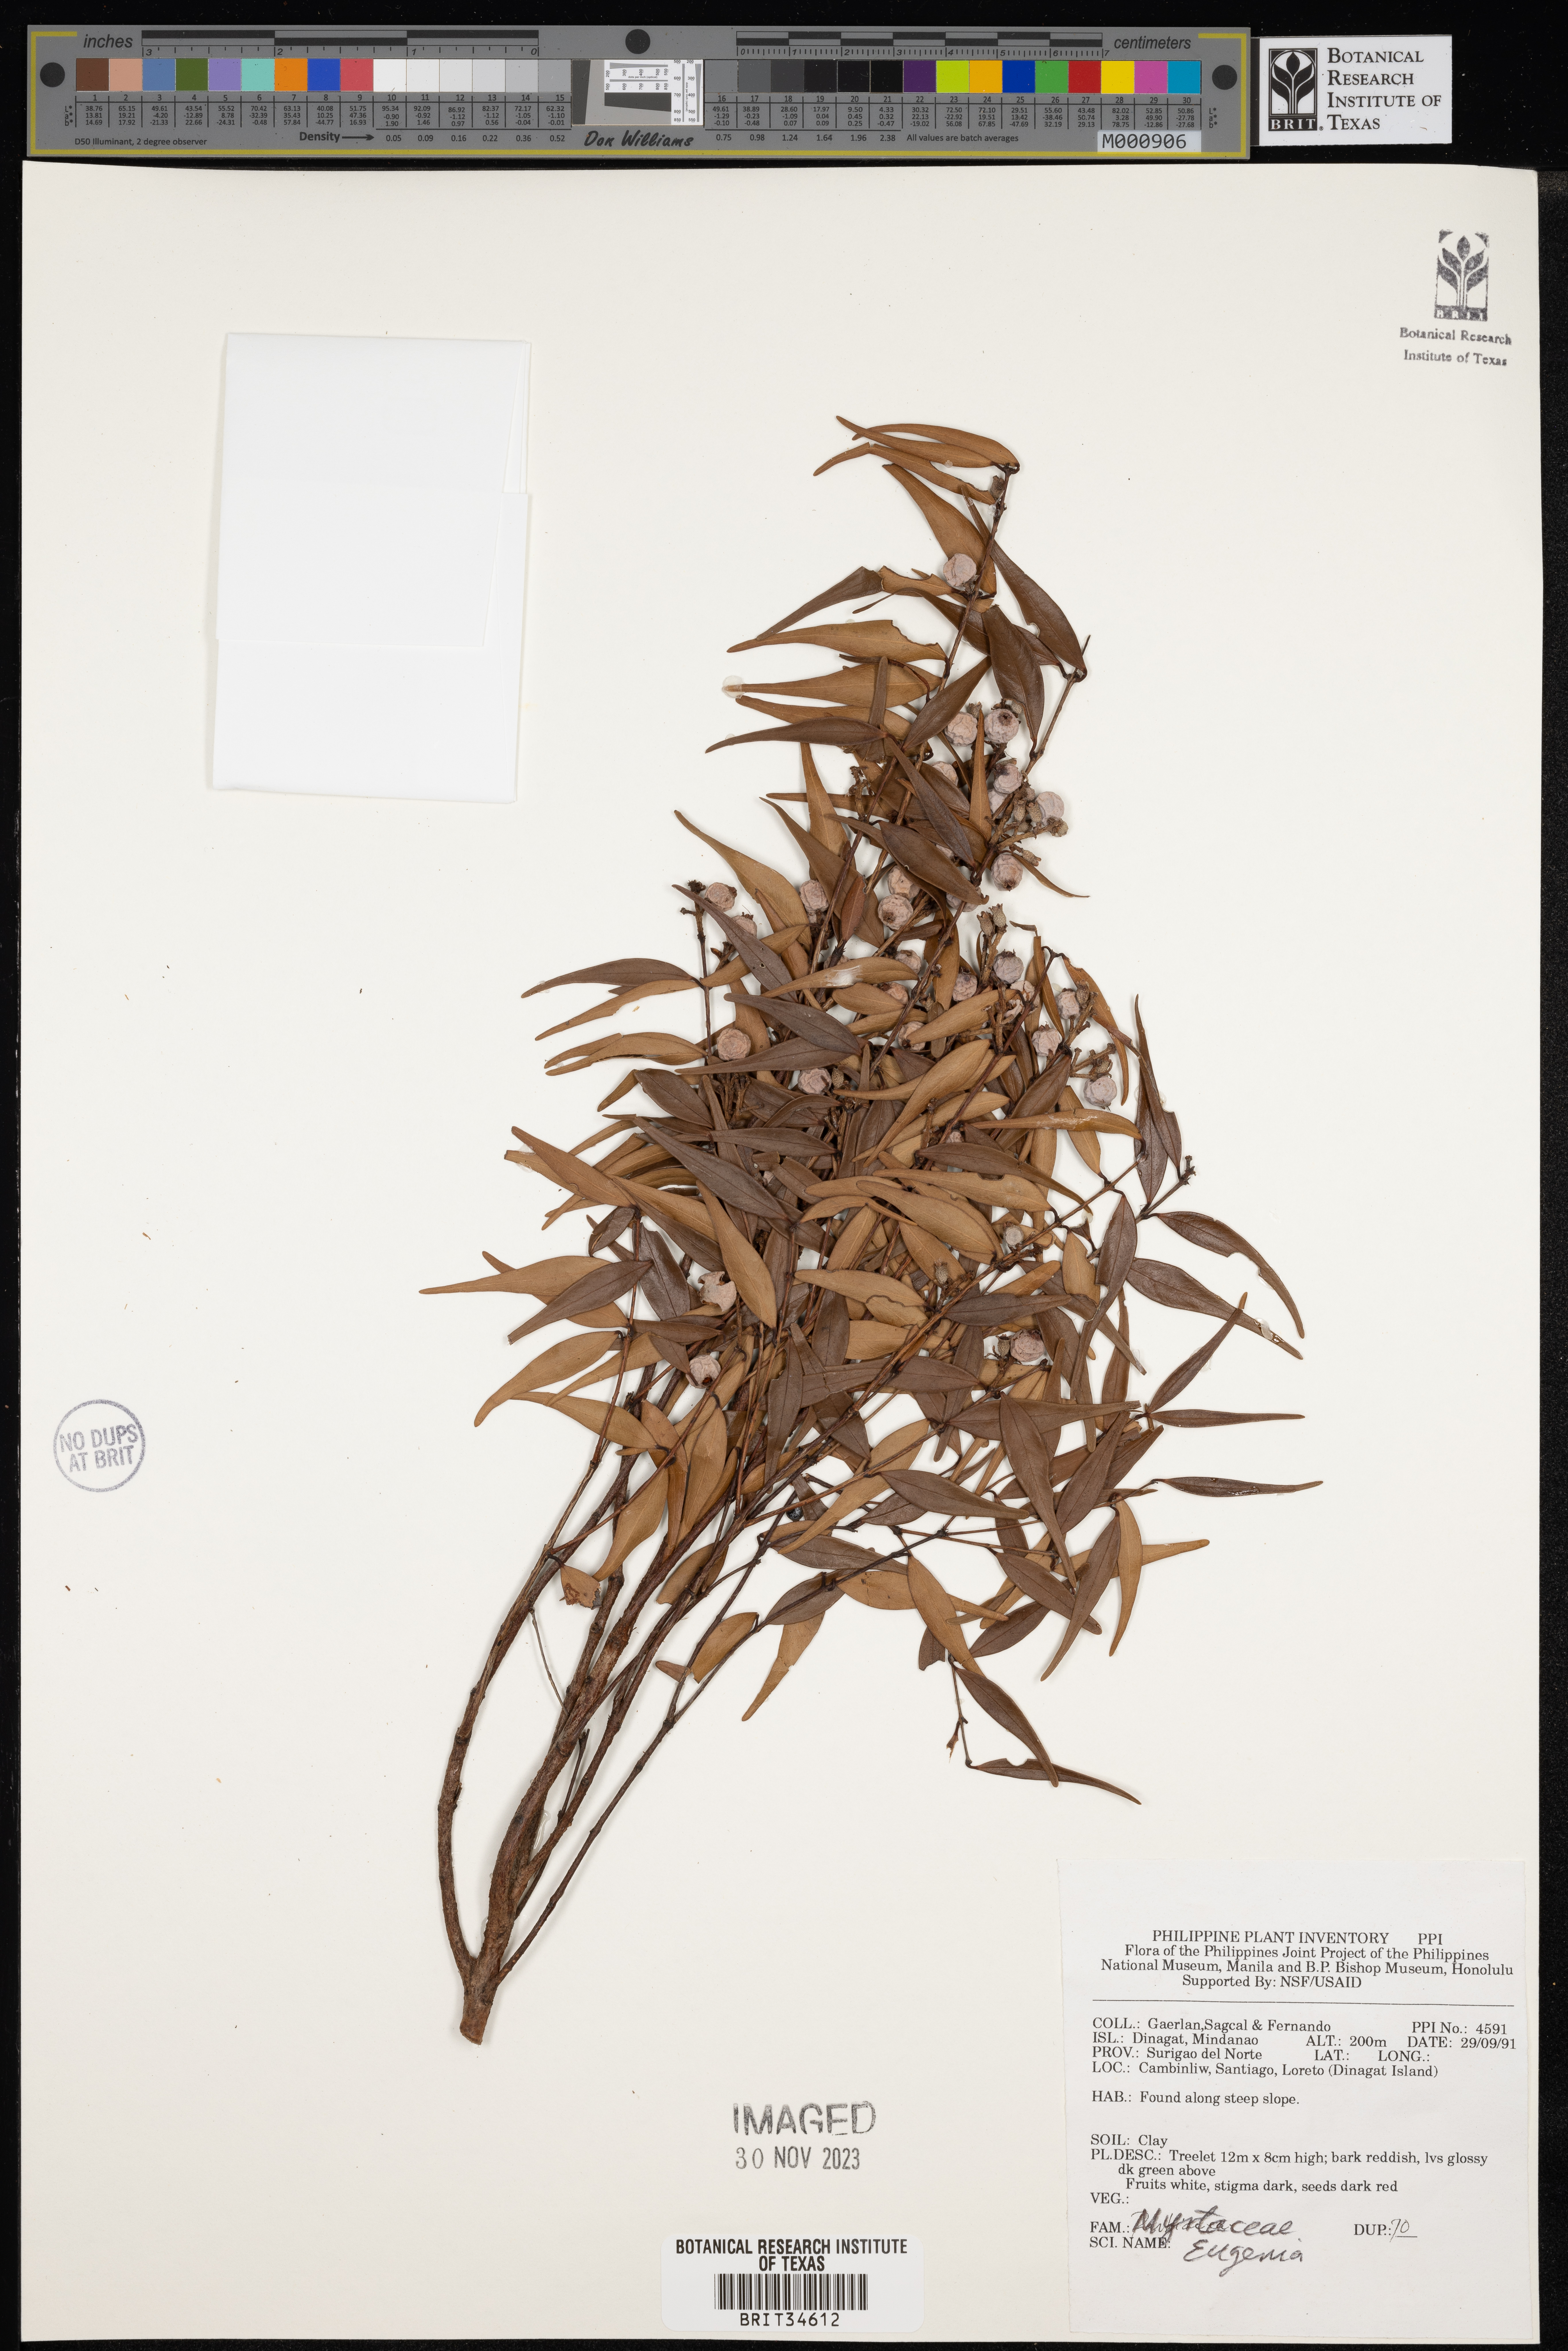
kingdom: Plantae
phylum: Tracheophyta
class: Magnoliopsida
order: Myrtales
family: Myrtaceae
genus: Eugenia
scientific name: Eugenia
